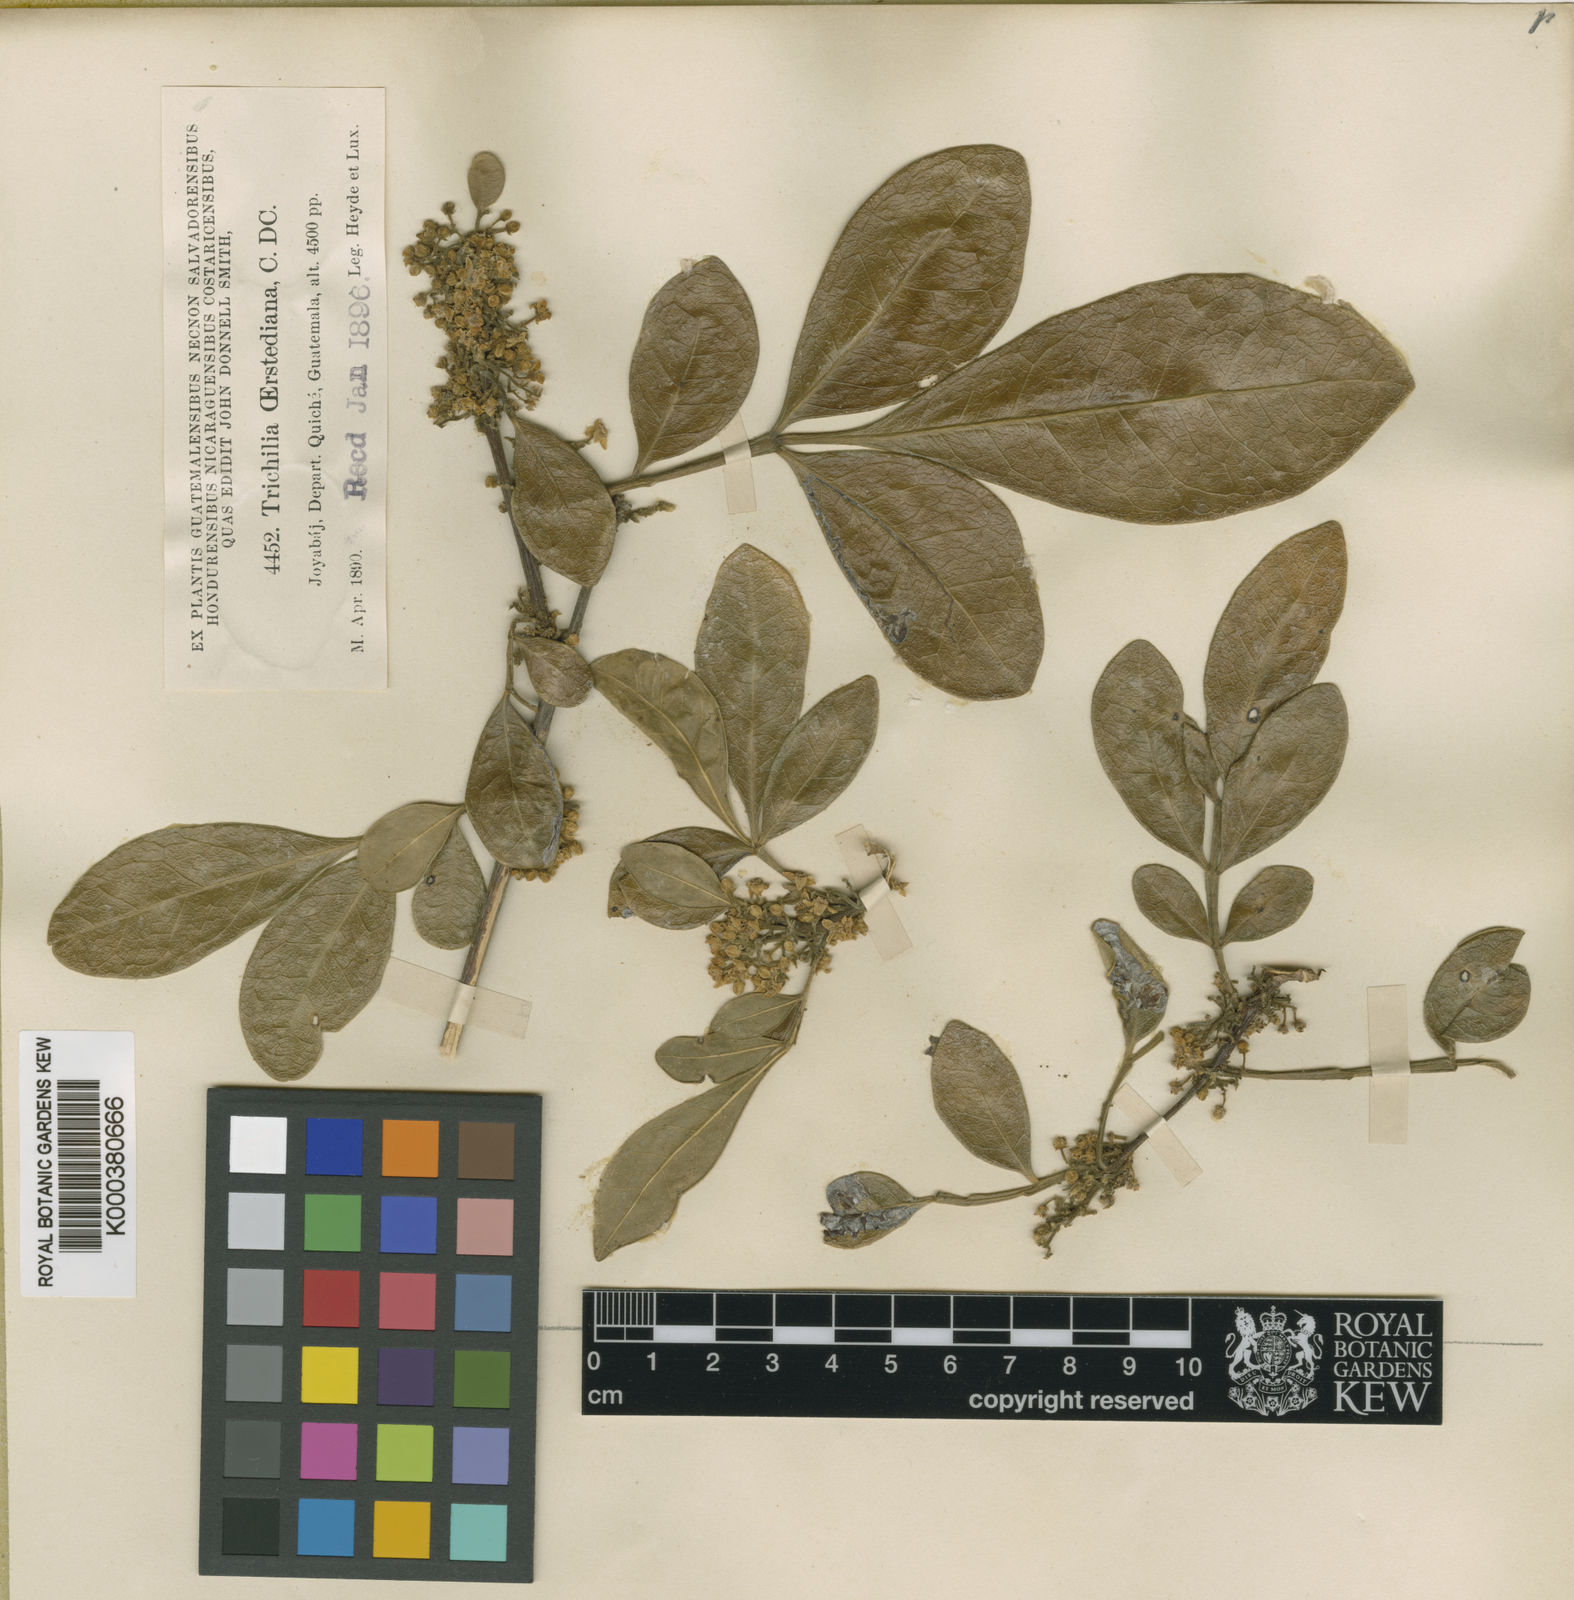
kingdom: Plantae
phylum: Tracheophyta
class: Magnoliopsida
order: Sapindales
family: Meliaceae
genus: Trichilia
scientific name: Trichilia havanensis
